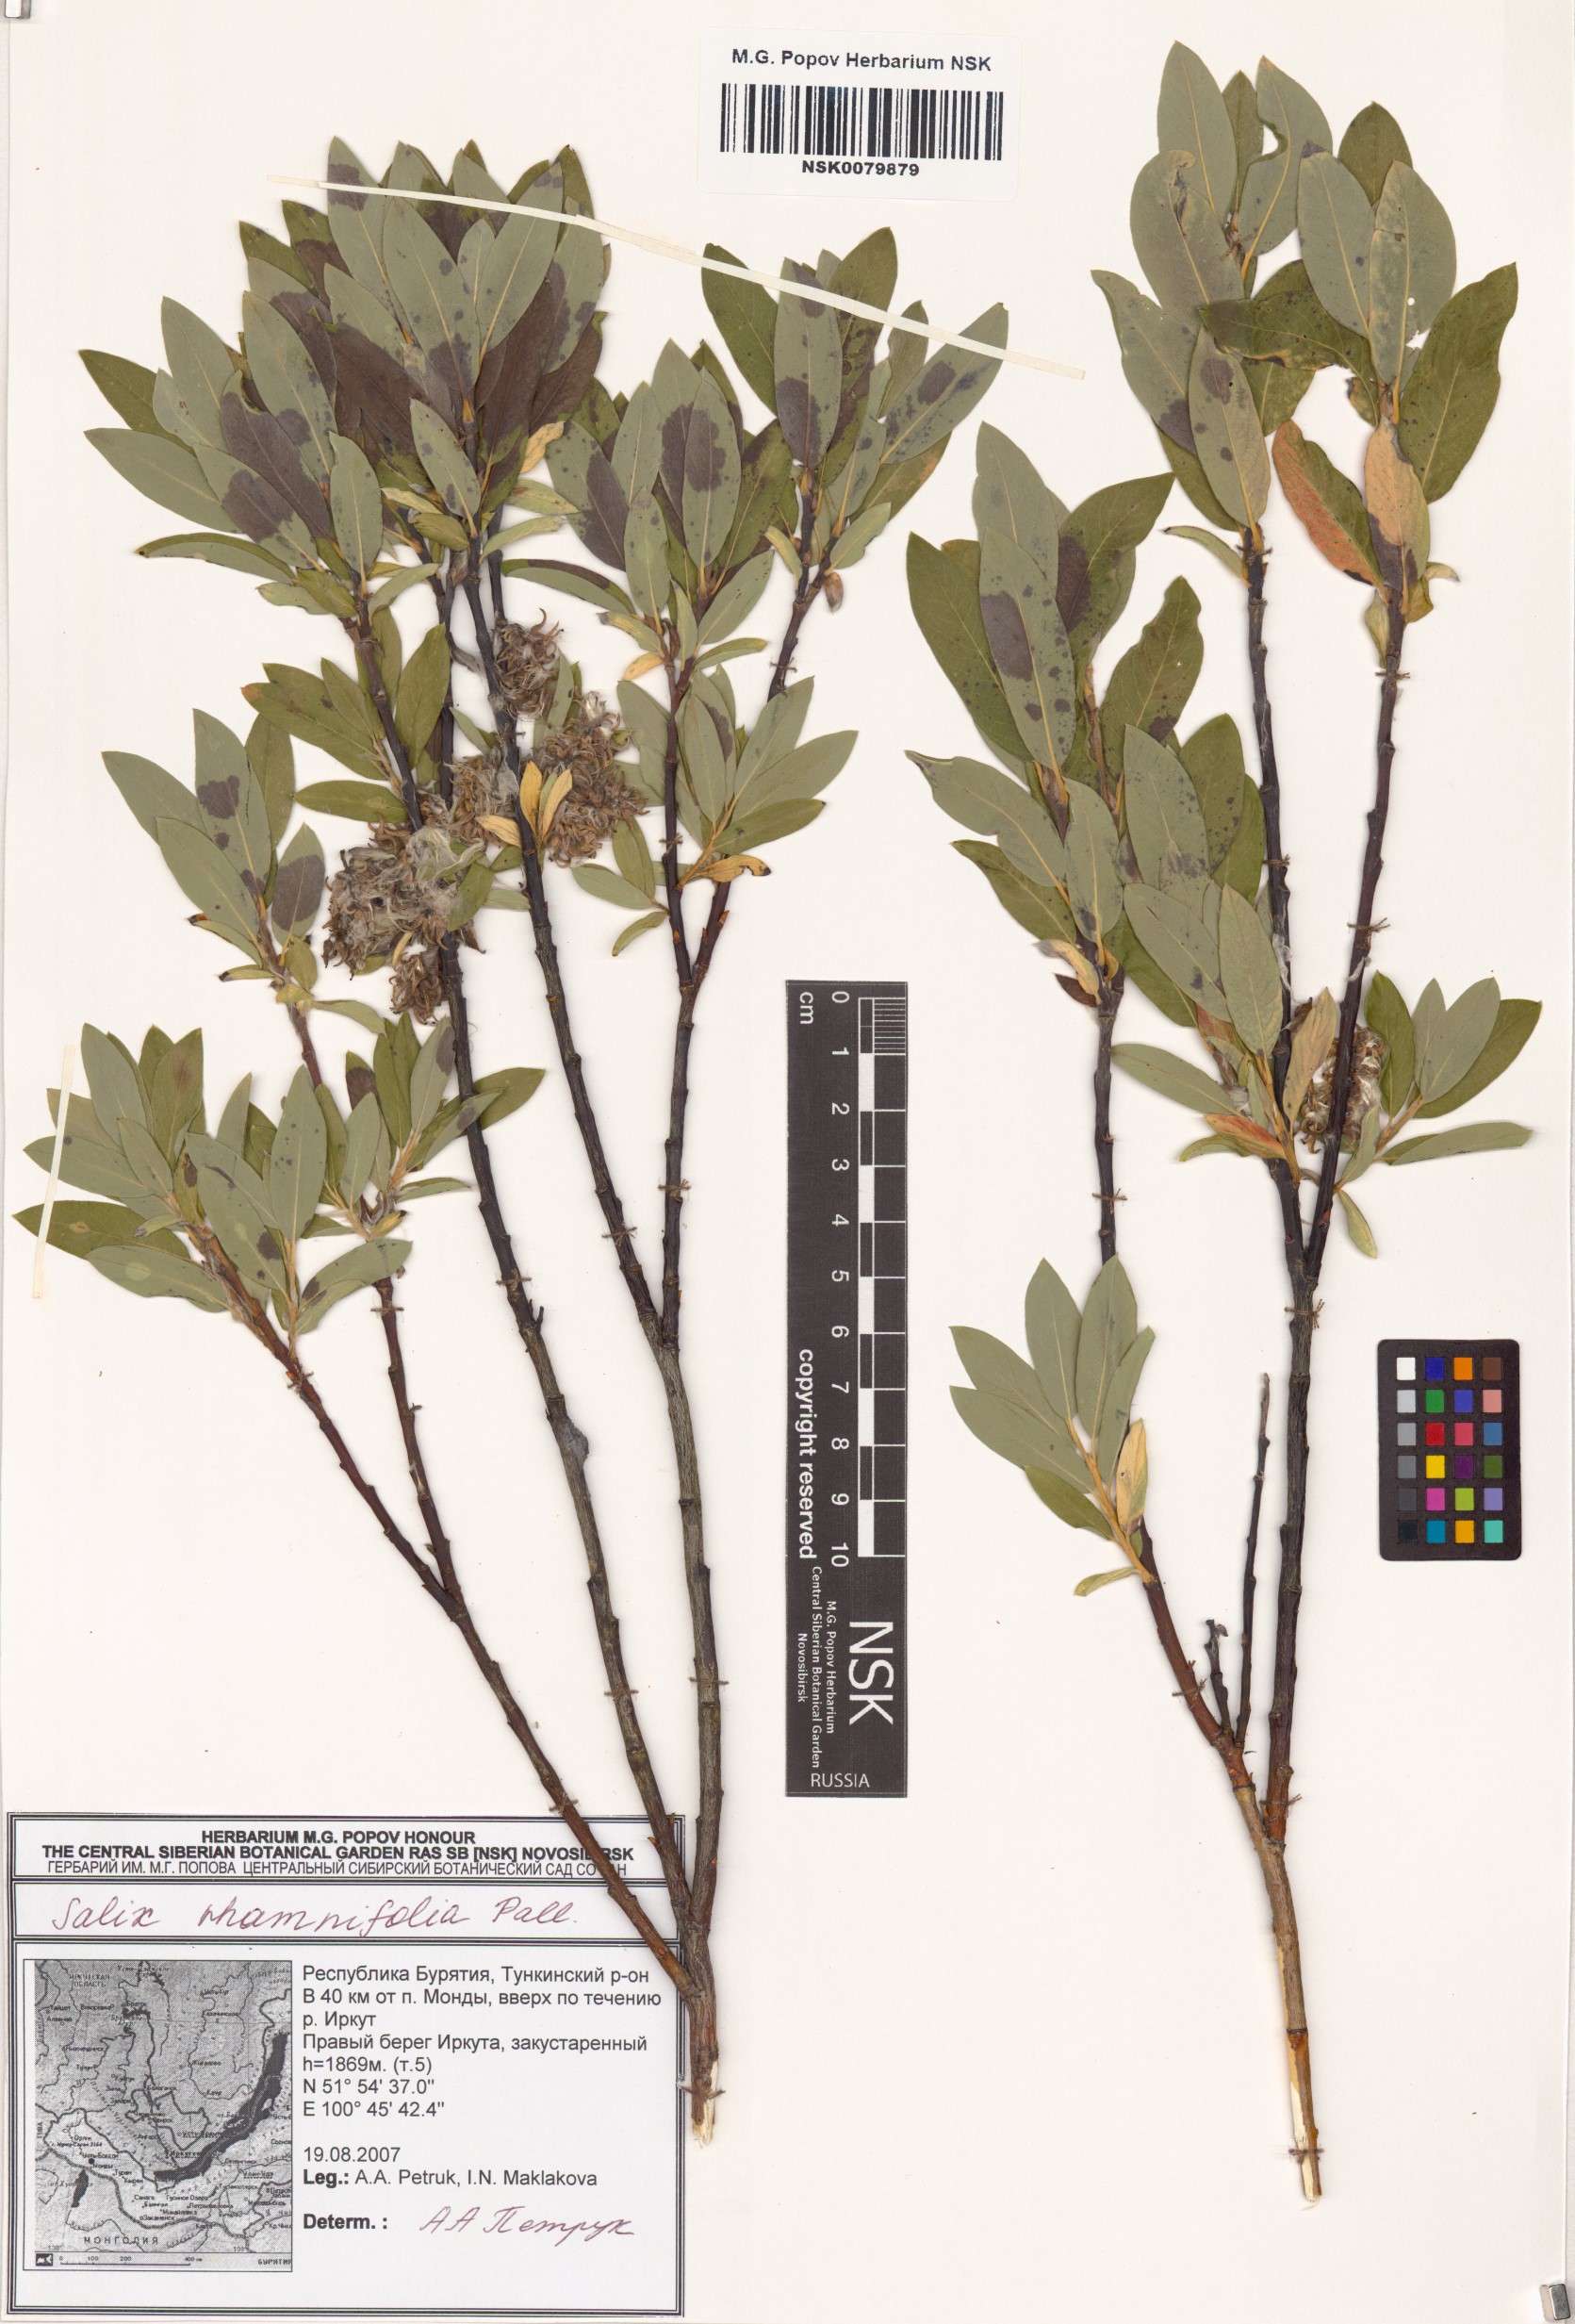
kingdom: Plantae
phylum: Tracheophyta
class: Magnoliopsida
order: Malpighiales
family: Salicaceae
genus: Salix
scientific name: Salix rhamnifolia
